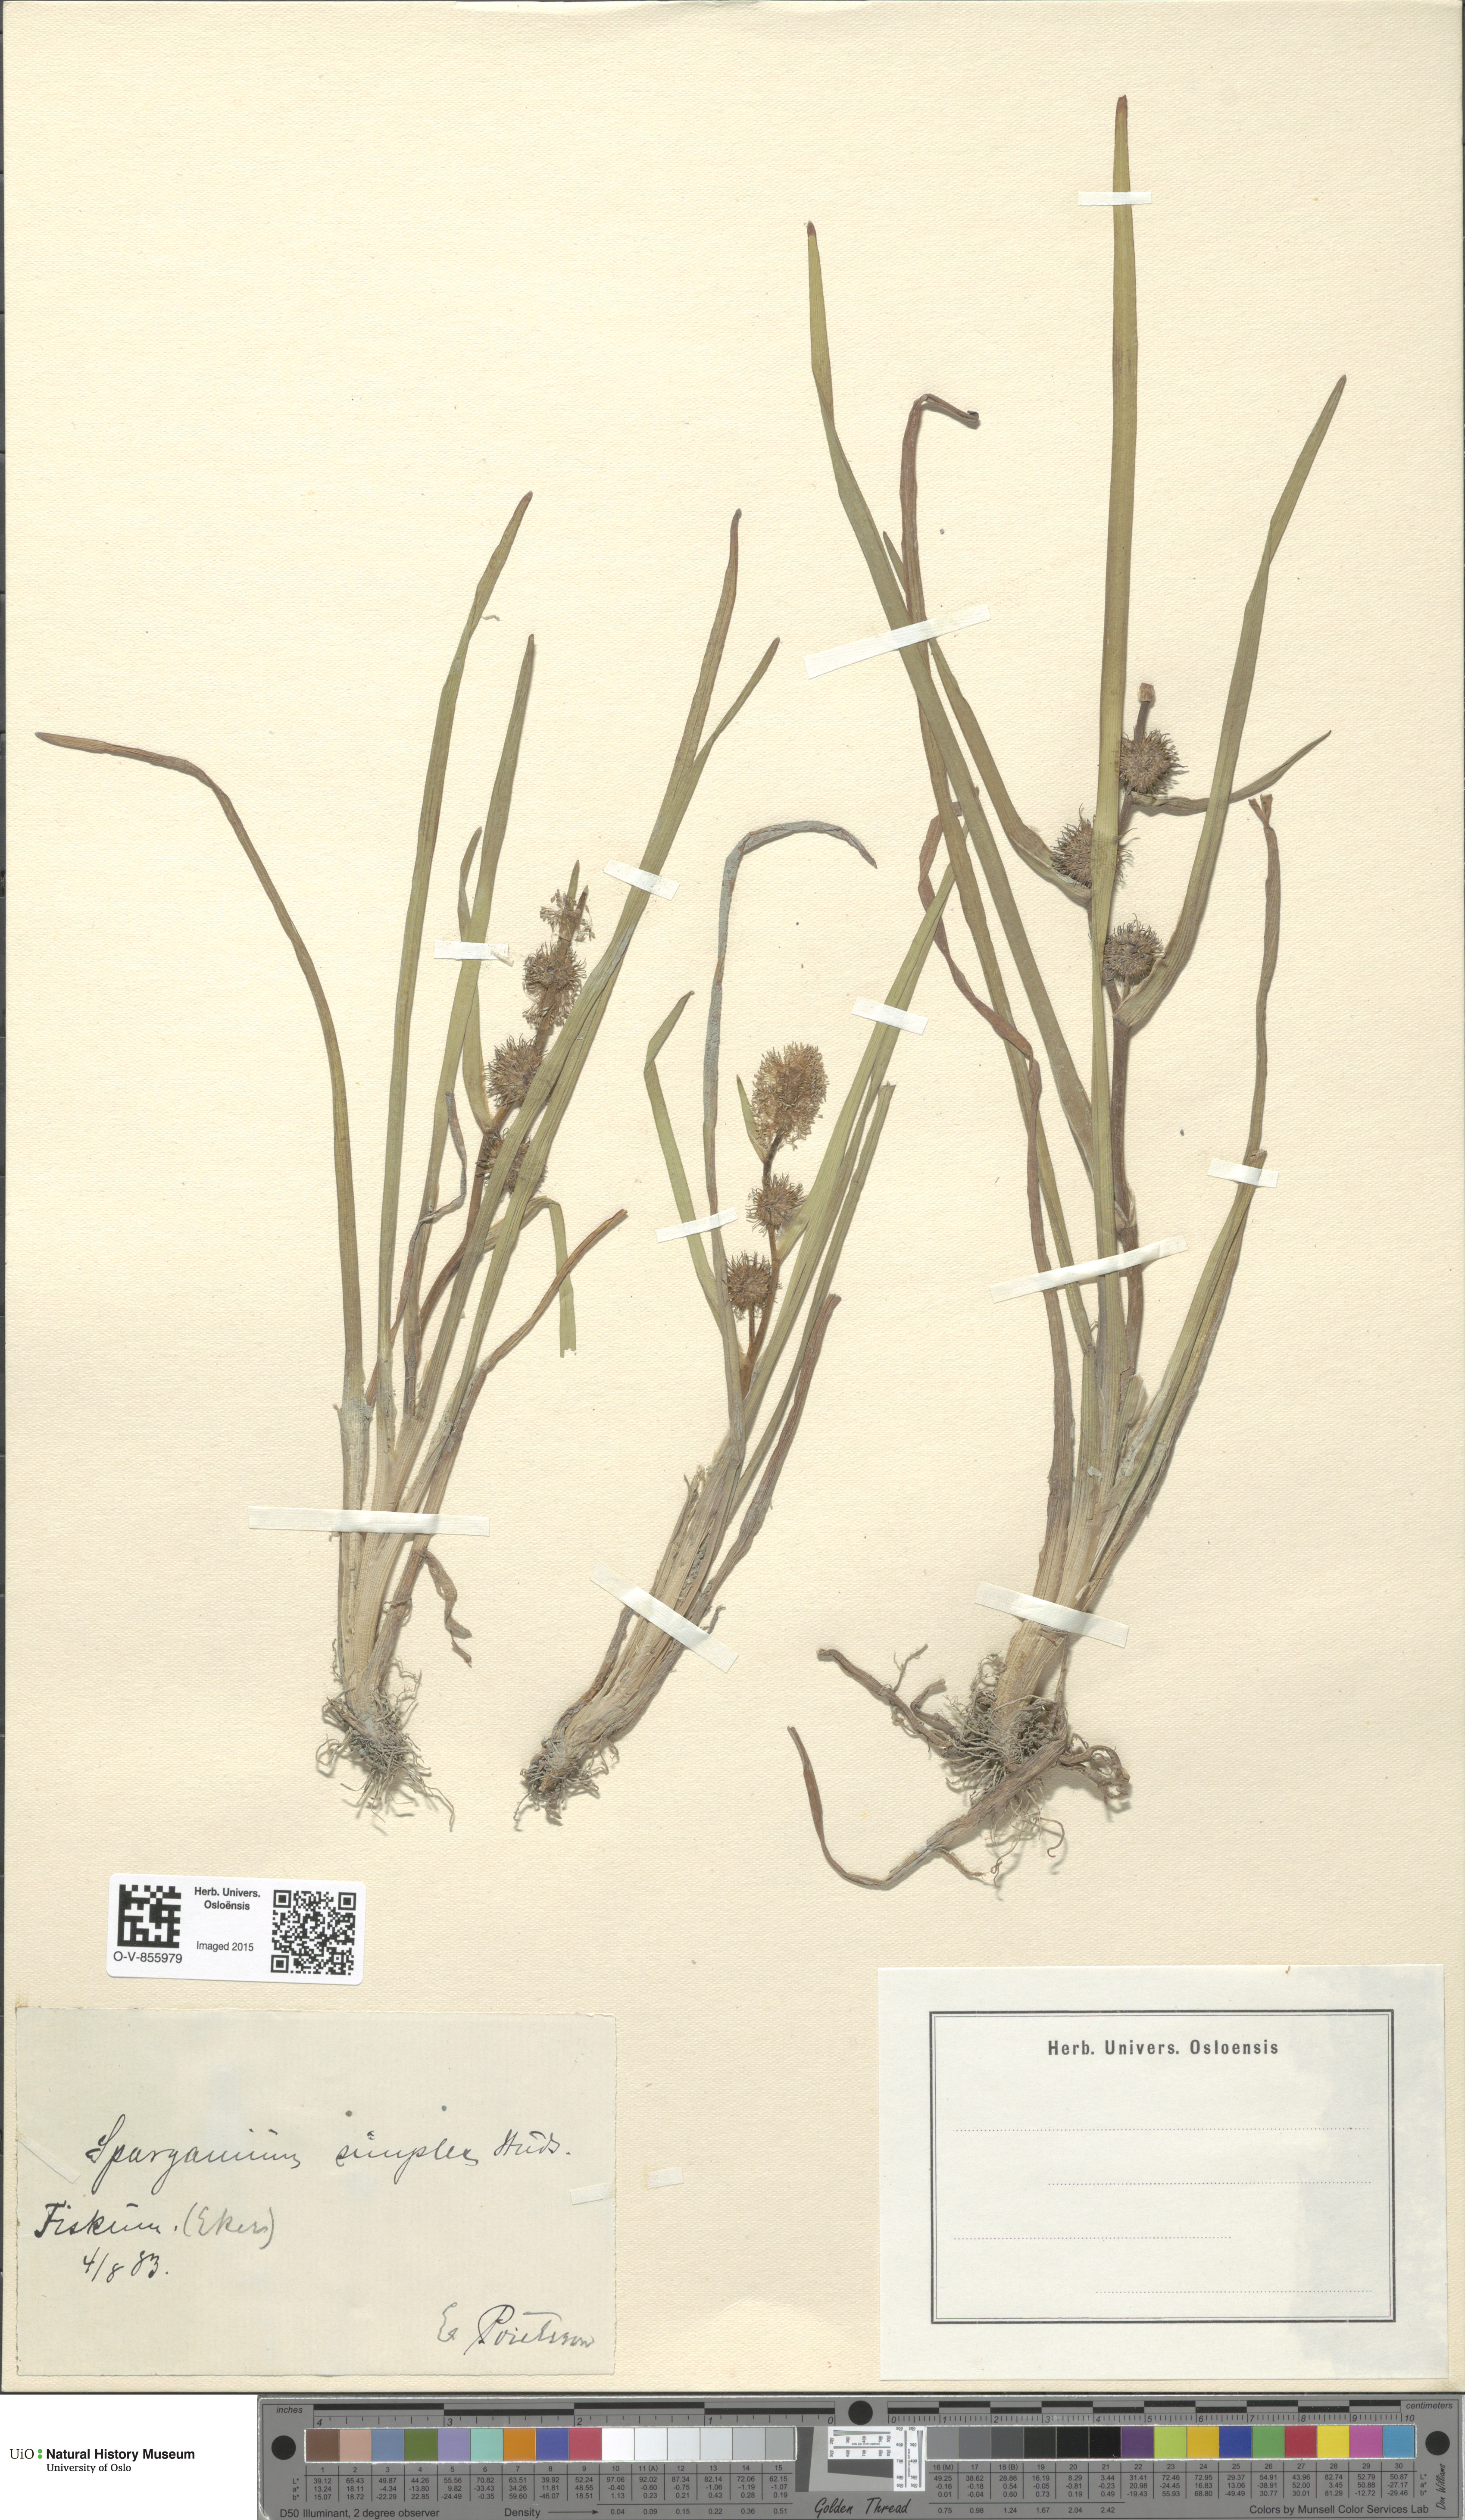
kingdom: Plantae
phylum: Tracheophyta
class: Liliopsida
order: Poales
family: Typhaceae
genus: Sparganium
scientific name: Sparganium emersum
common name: Unbranched bur-reed
